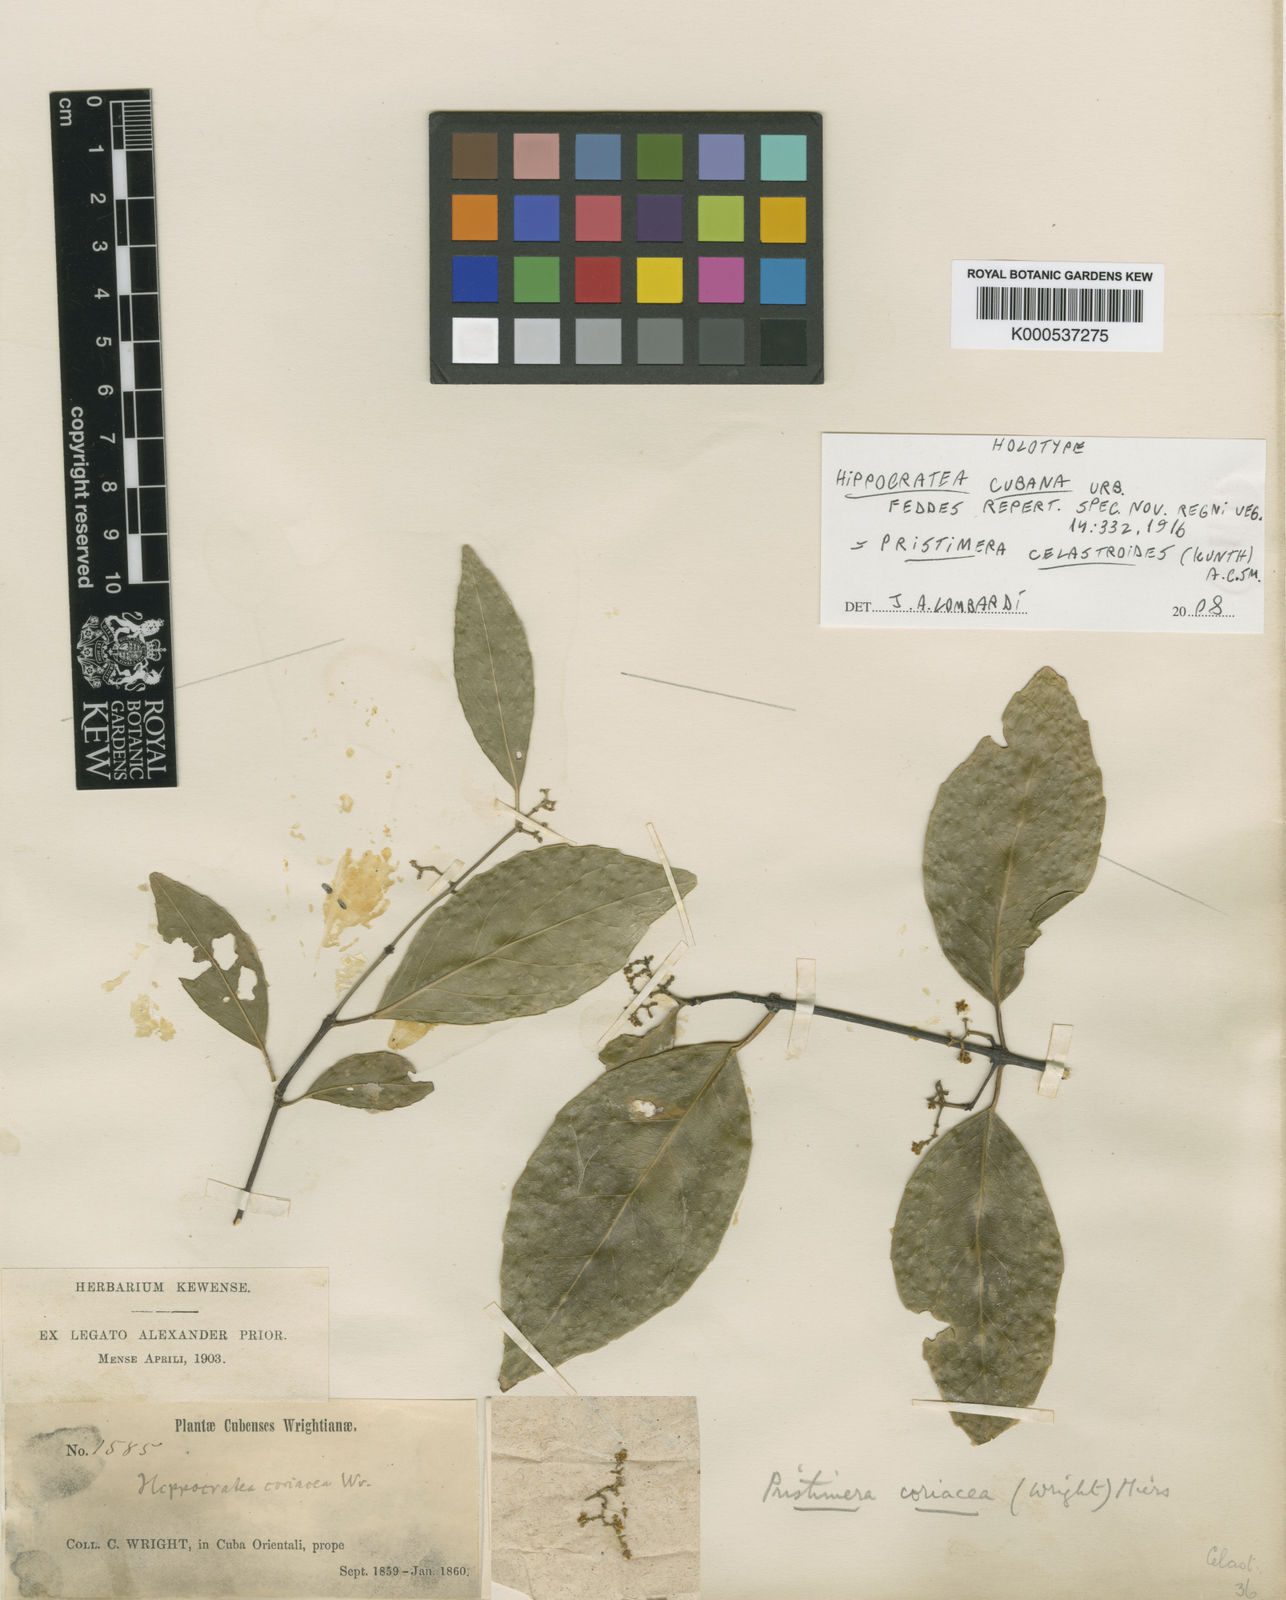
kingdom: Plantae
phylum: Tracheophyta
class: Magnoliopsida
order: Celastrales
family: Celastraceae
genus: Pristimera
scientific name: Pristimera celastroides
